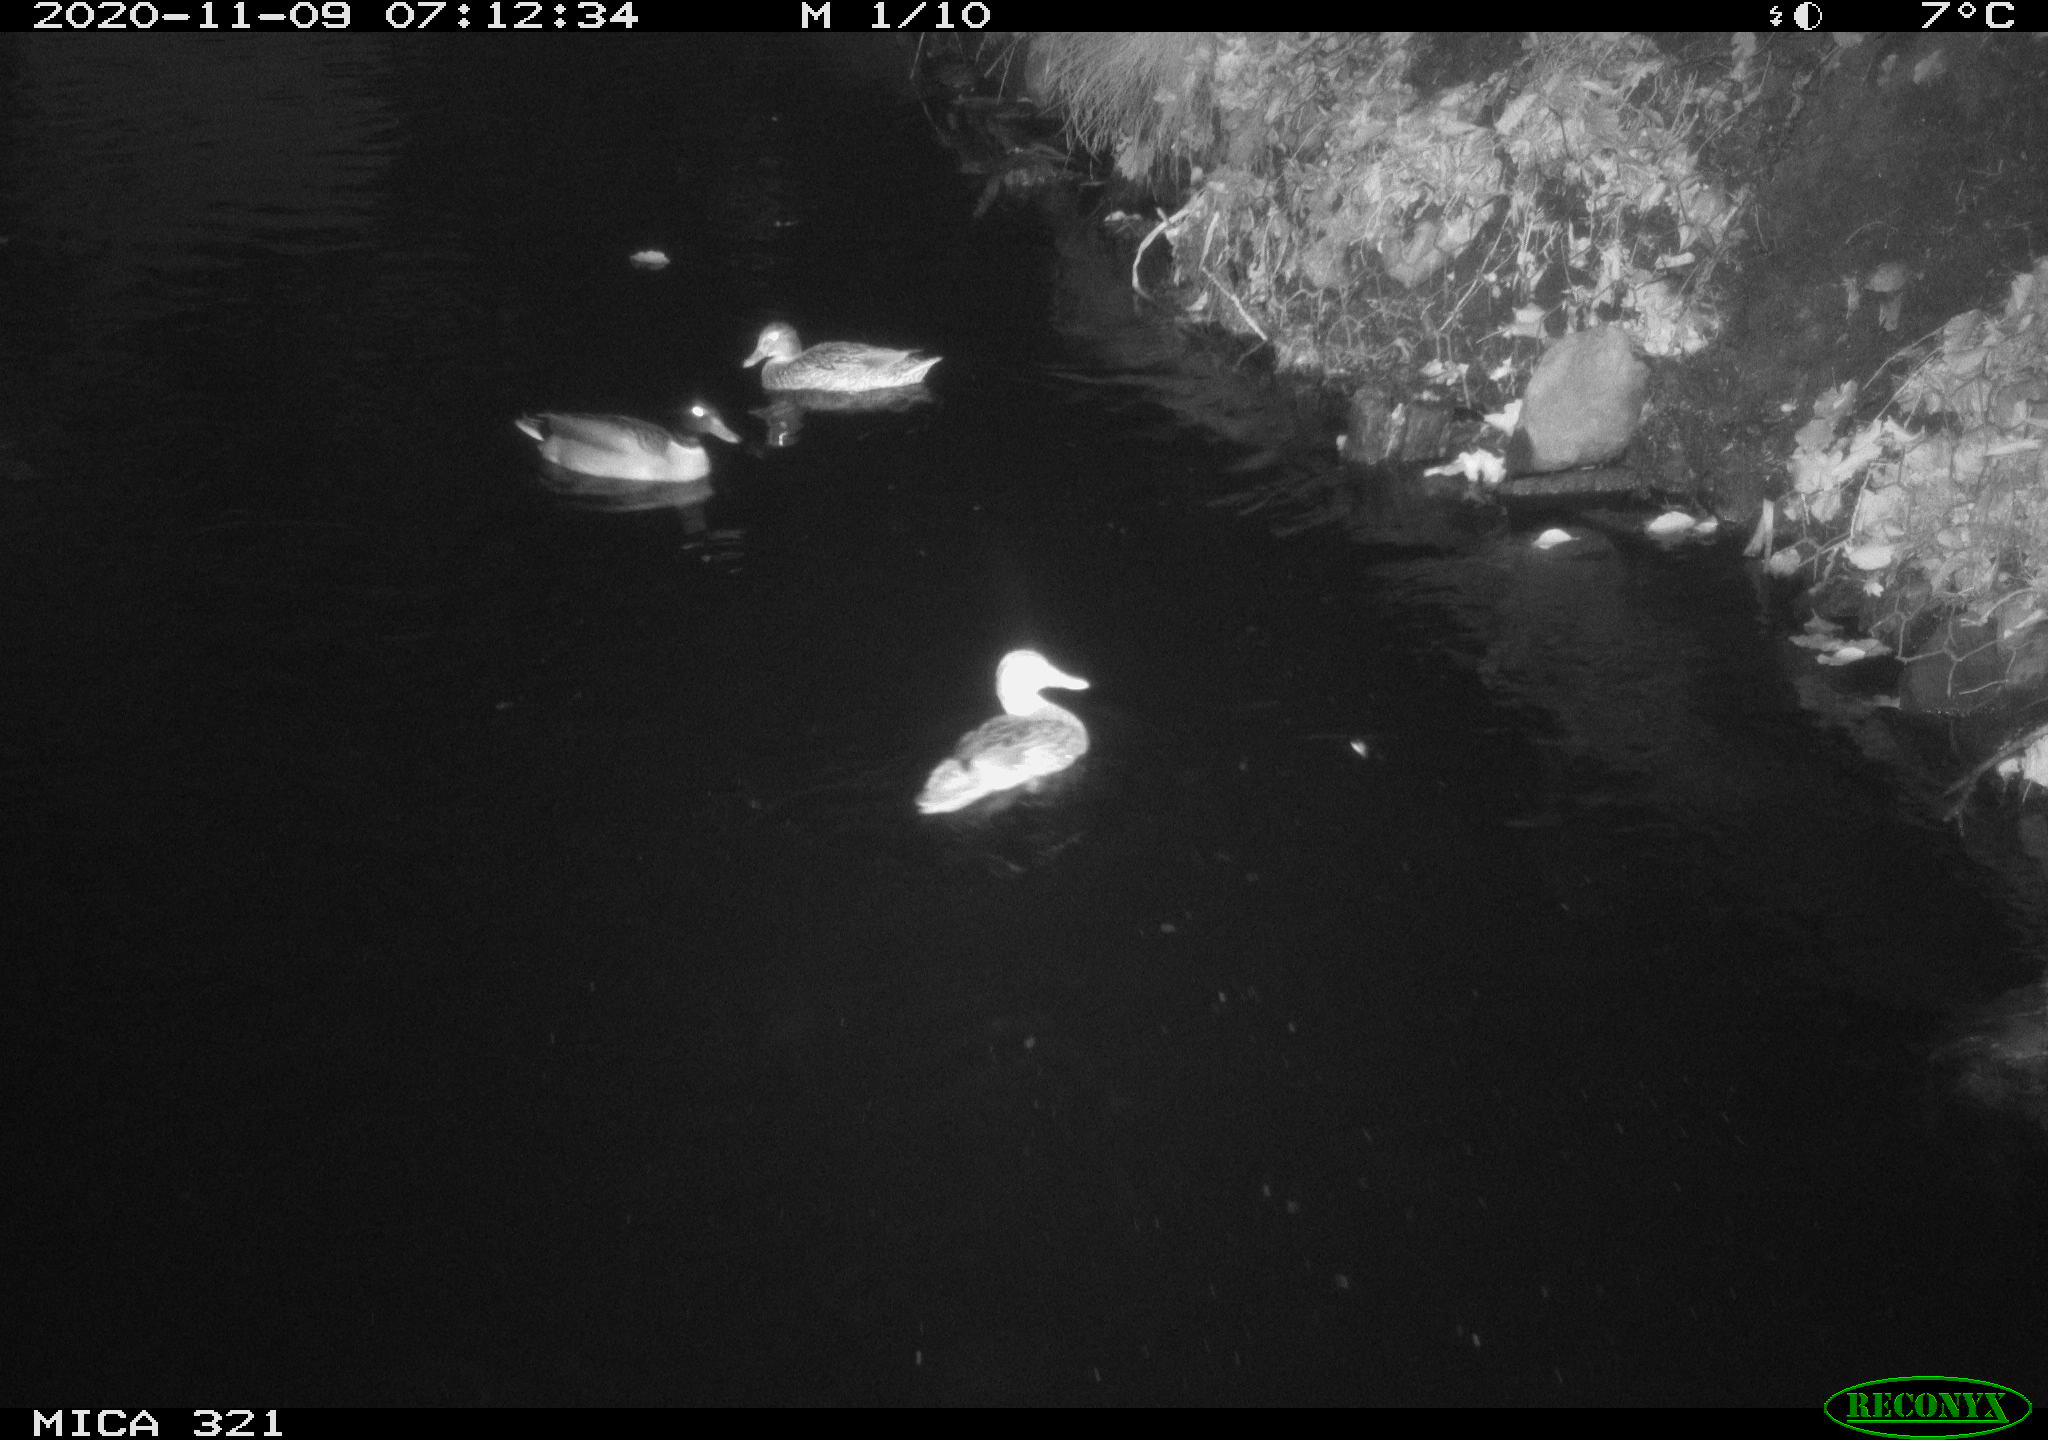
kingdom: Animalia
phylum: Chordata
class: Aves
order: Anseriformes
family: Anatidae
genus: Anas
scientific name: Anas platyrhynchos
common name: Mallard
